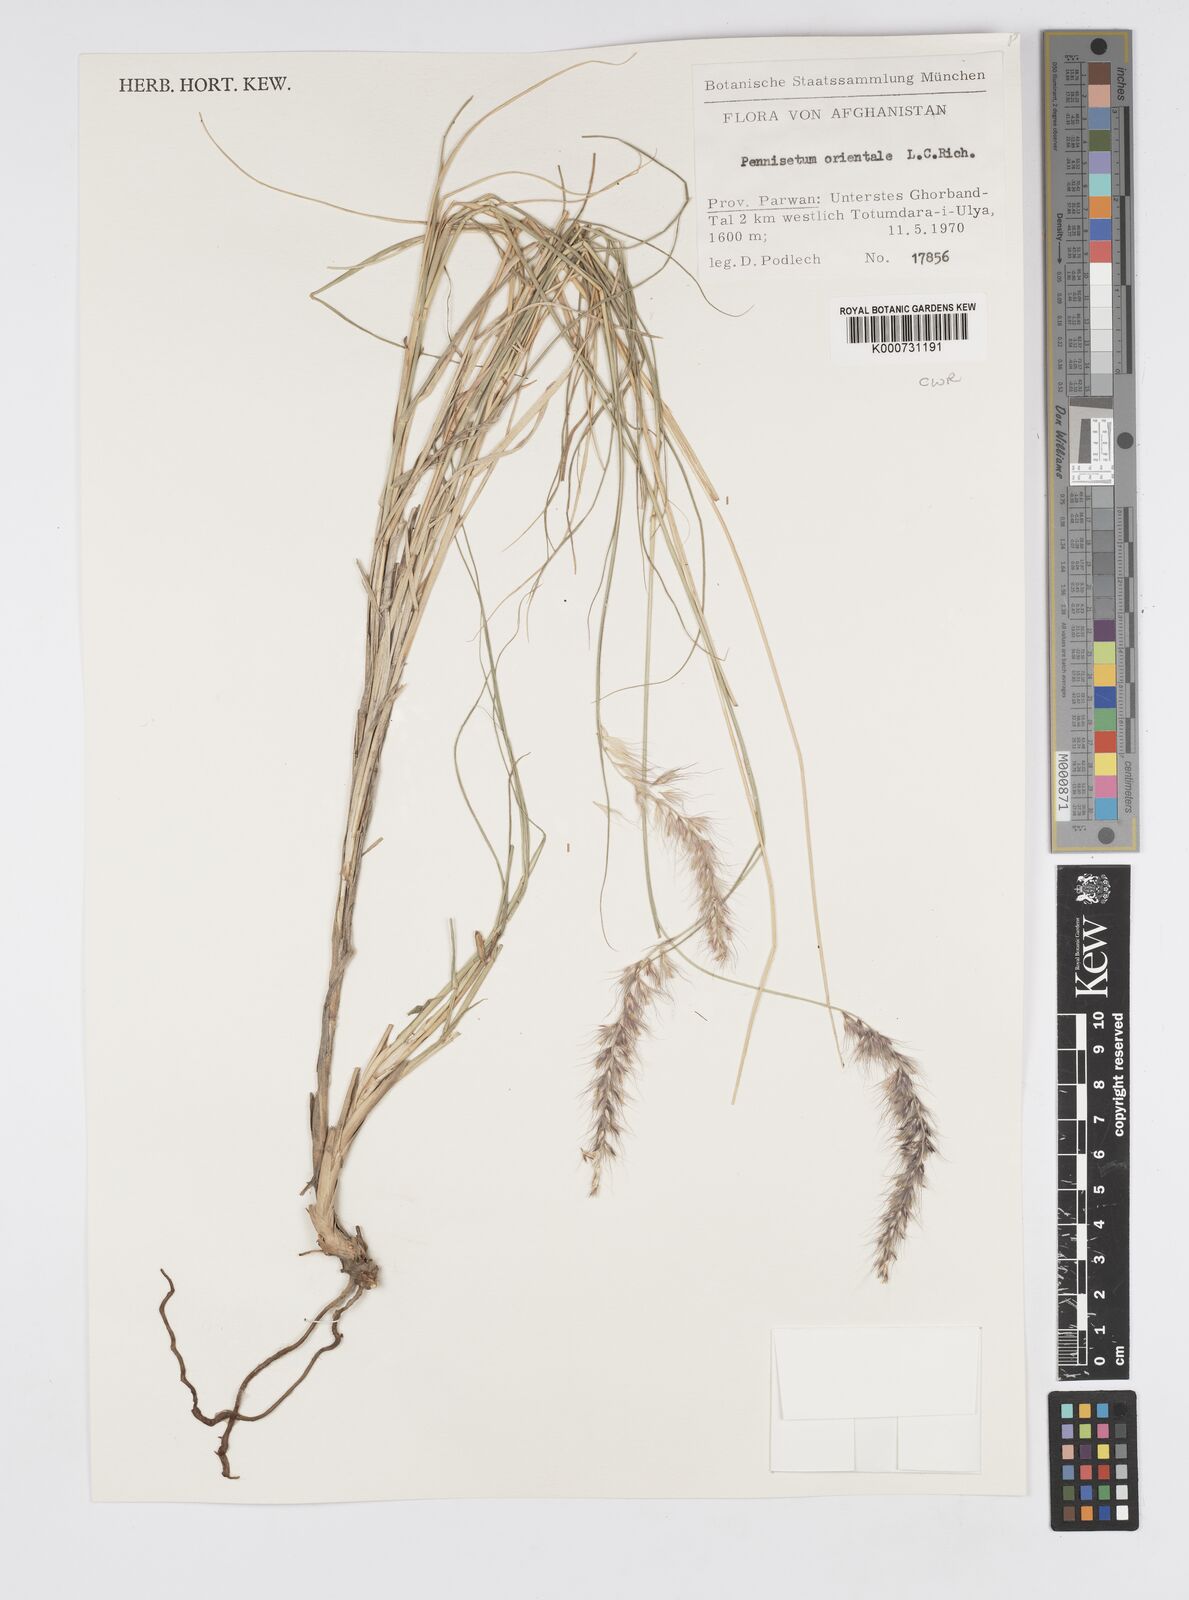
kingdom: Plantae
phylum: Tracheophyta
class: Liliopsida
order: Poales
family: Poaceae
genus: Cenchrus
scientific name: Cenchrus orientalis
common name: Oriental fountain grass
